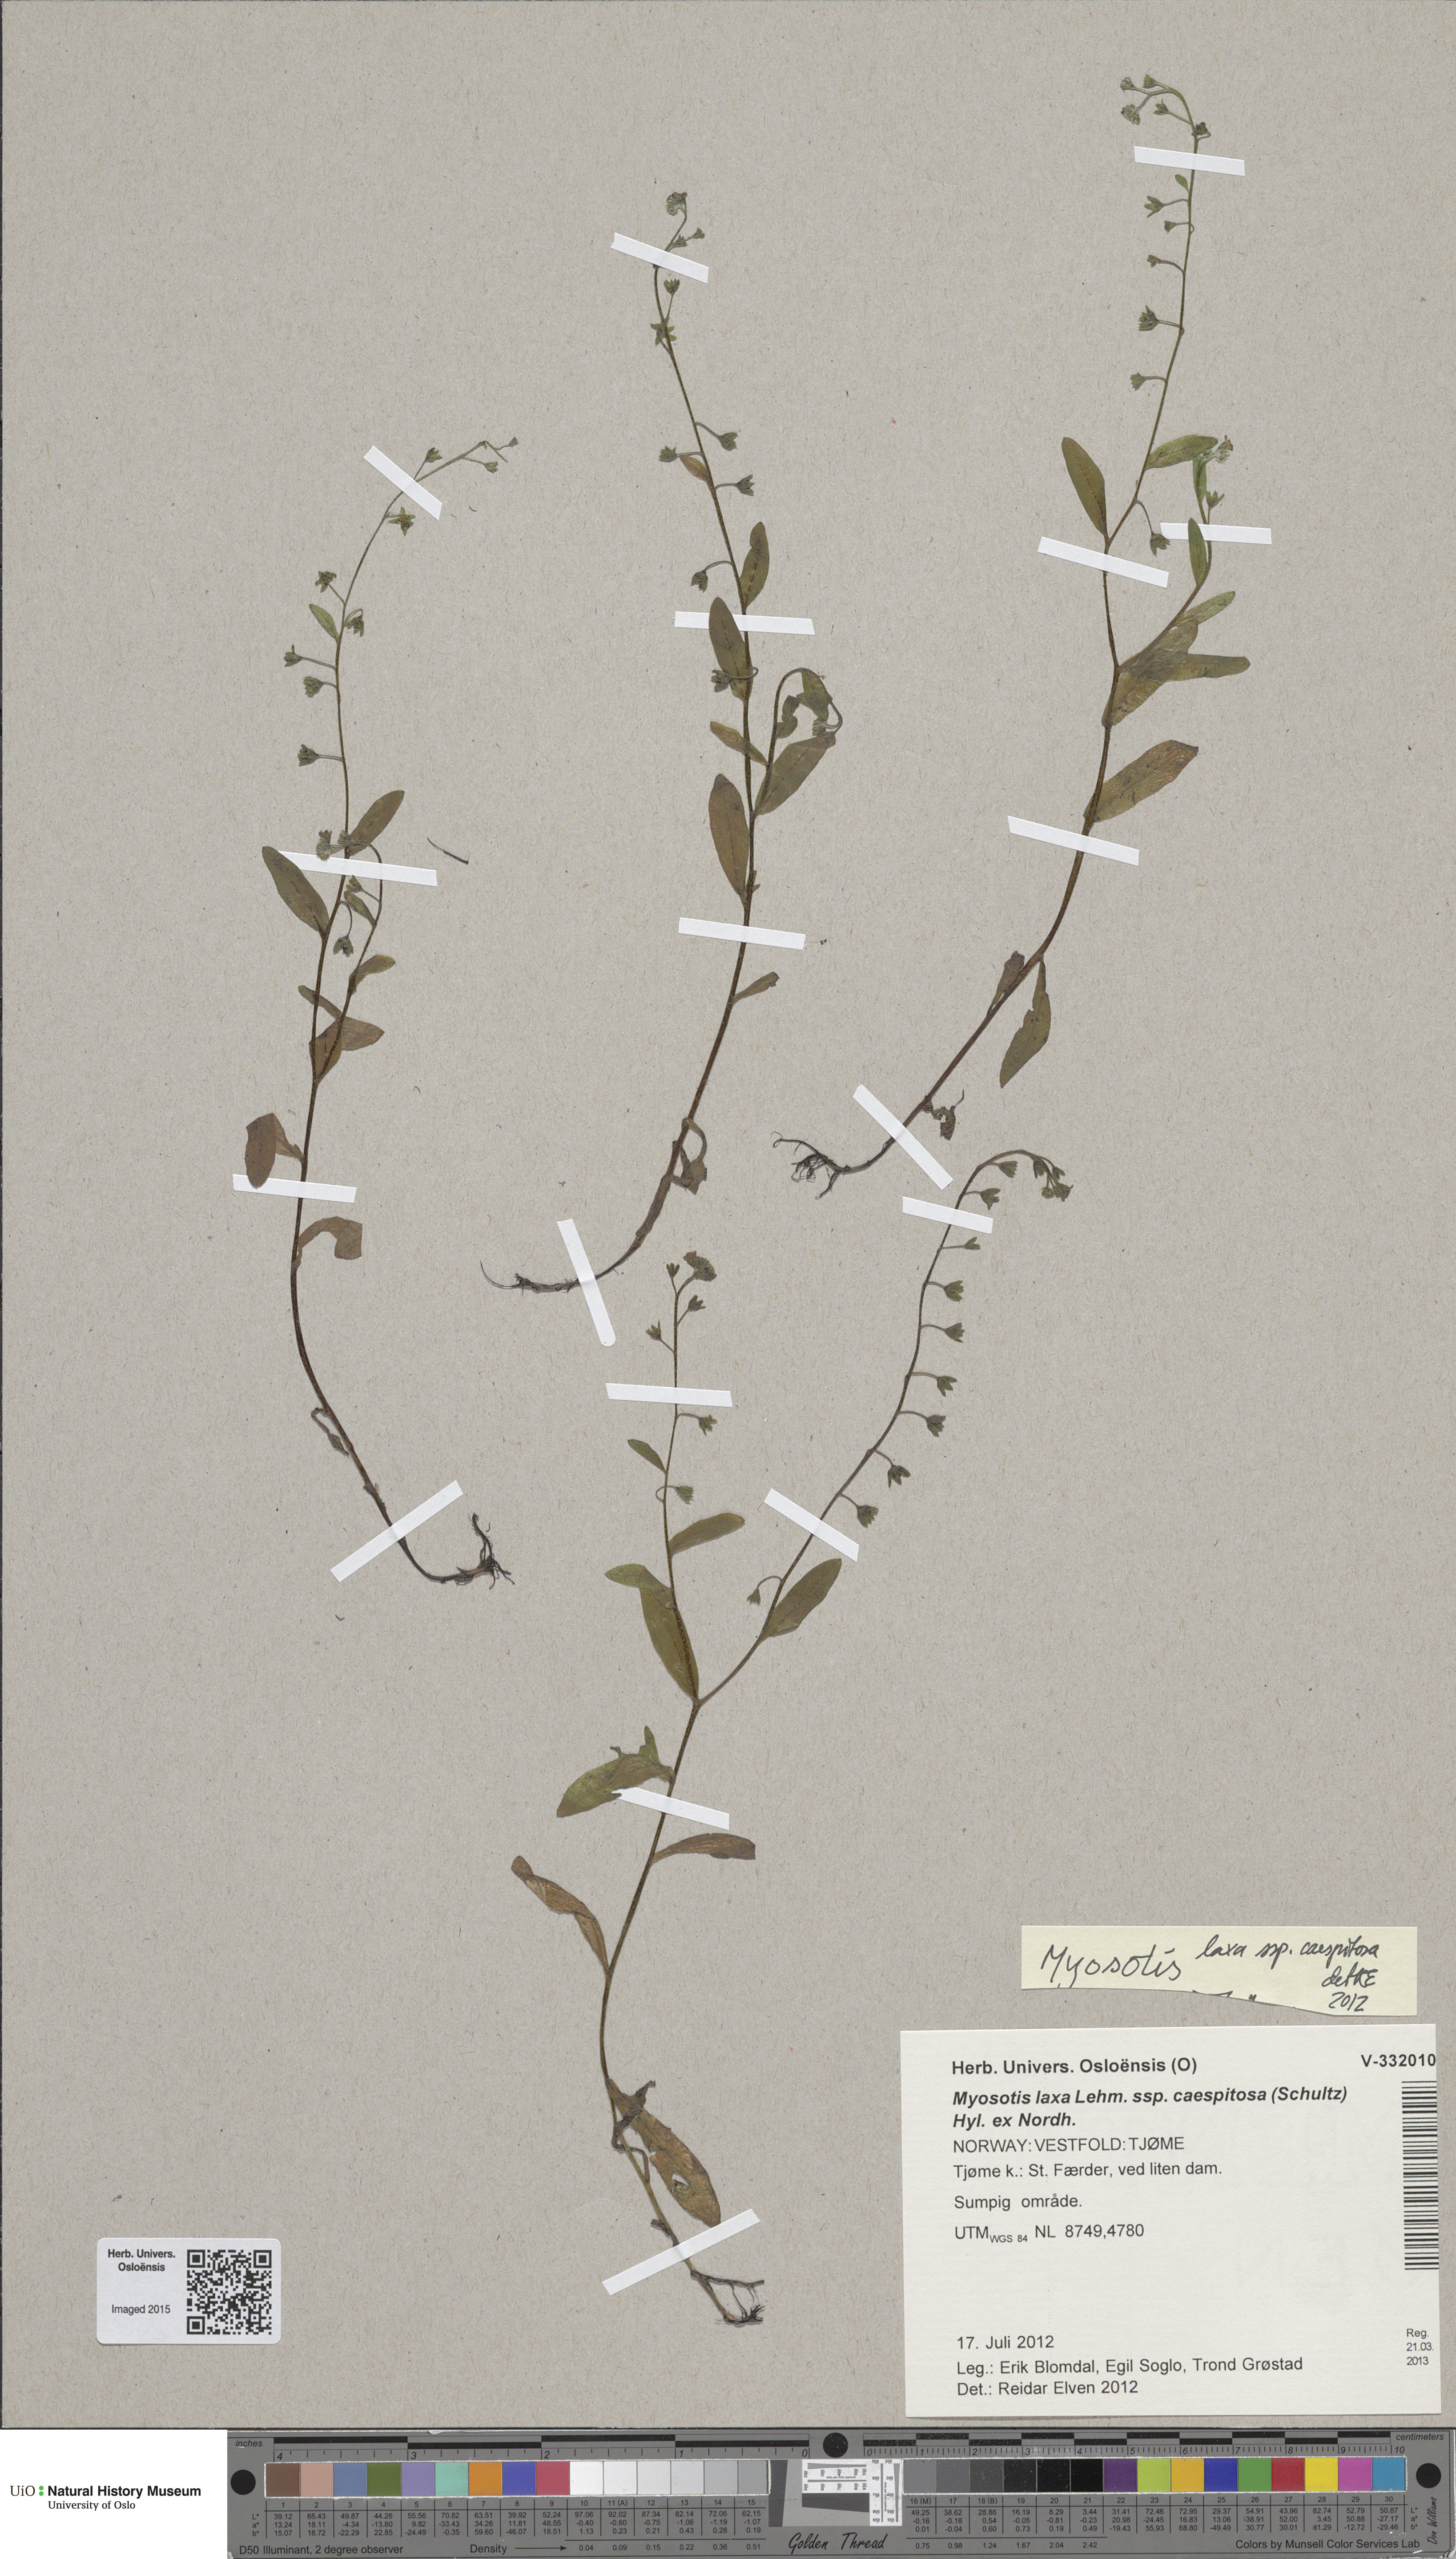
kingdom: Plantae
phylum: Tracheophyta
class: Magnoliopsida
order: Boraginales
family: Boraginaceae
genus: Myosotis
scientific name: Myosotis laxa
